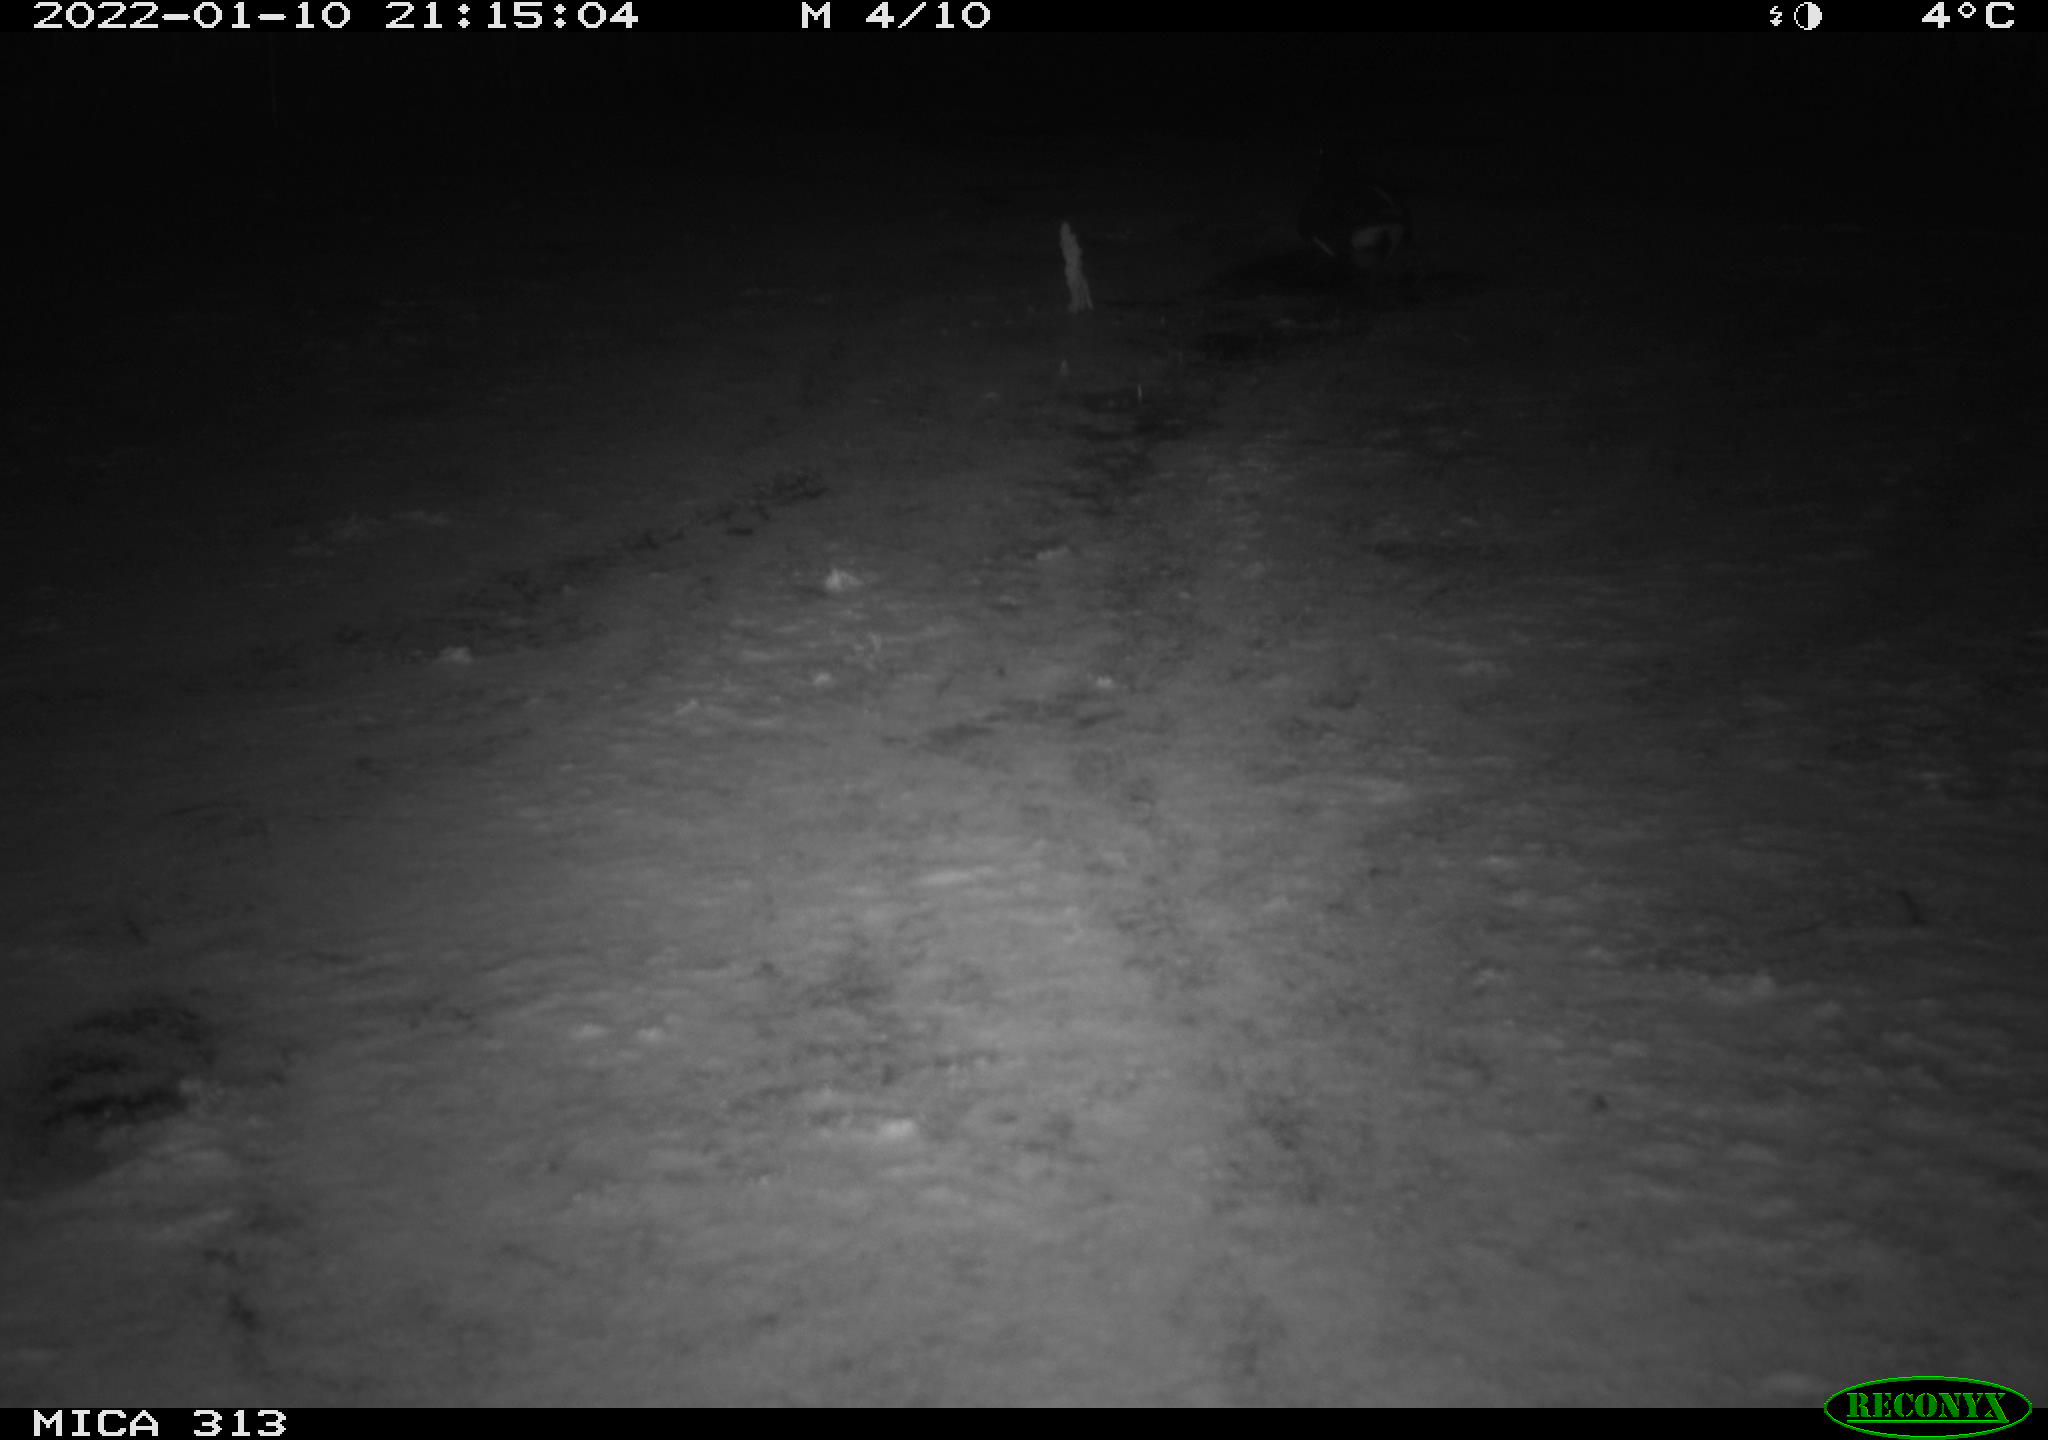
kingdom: Animalia
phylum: Chordata
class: Aves
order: Gruiformes
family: Rallidae
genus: Gallinula
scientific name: Gallinula chloropus
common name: Common moorhen
